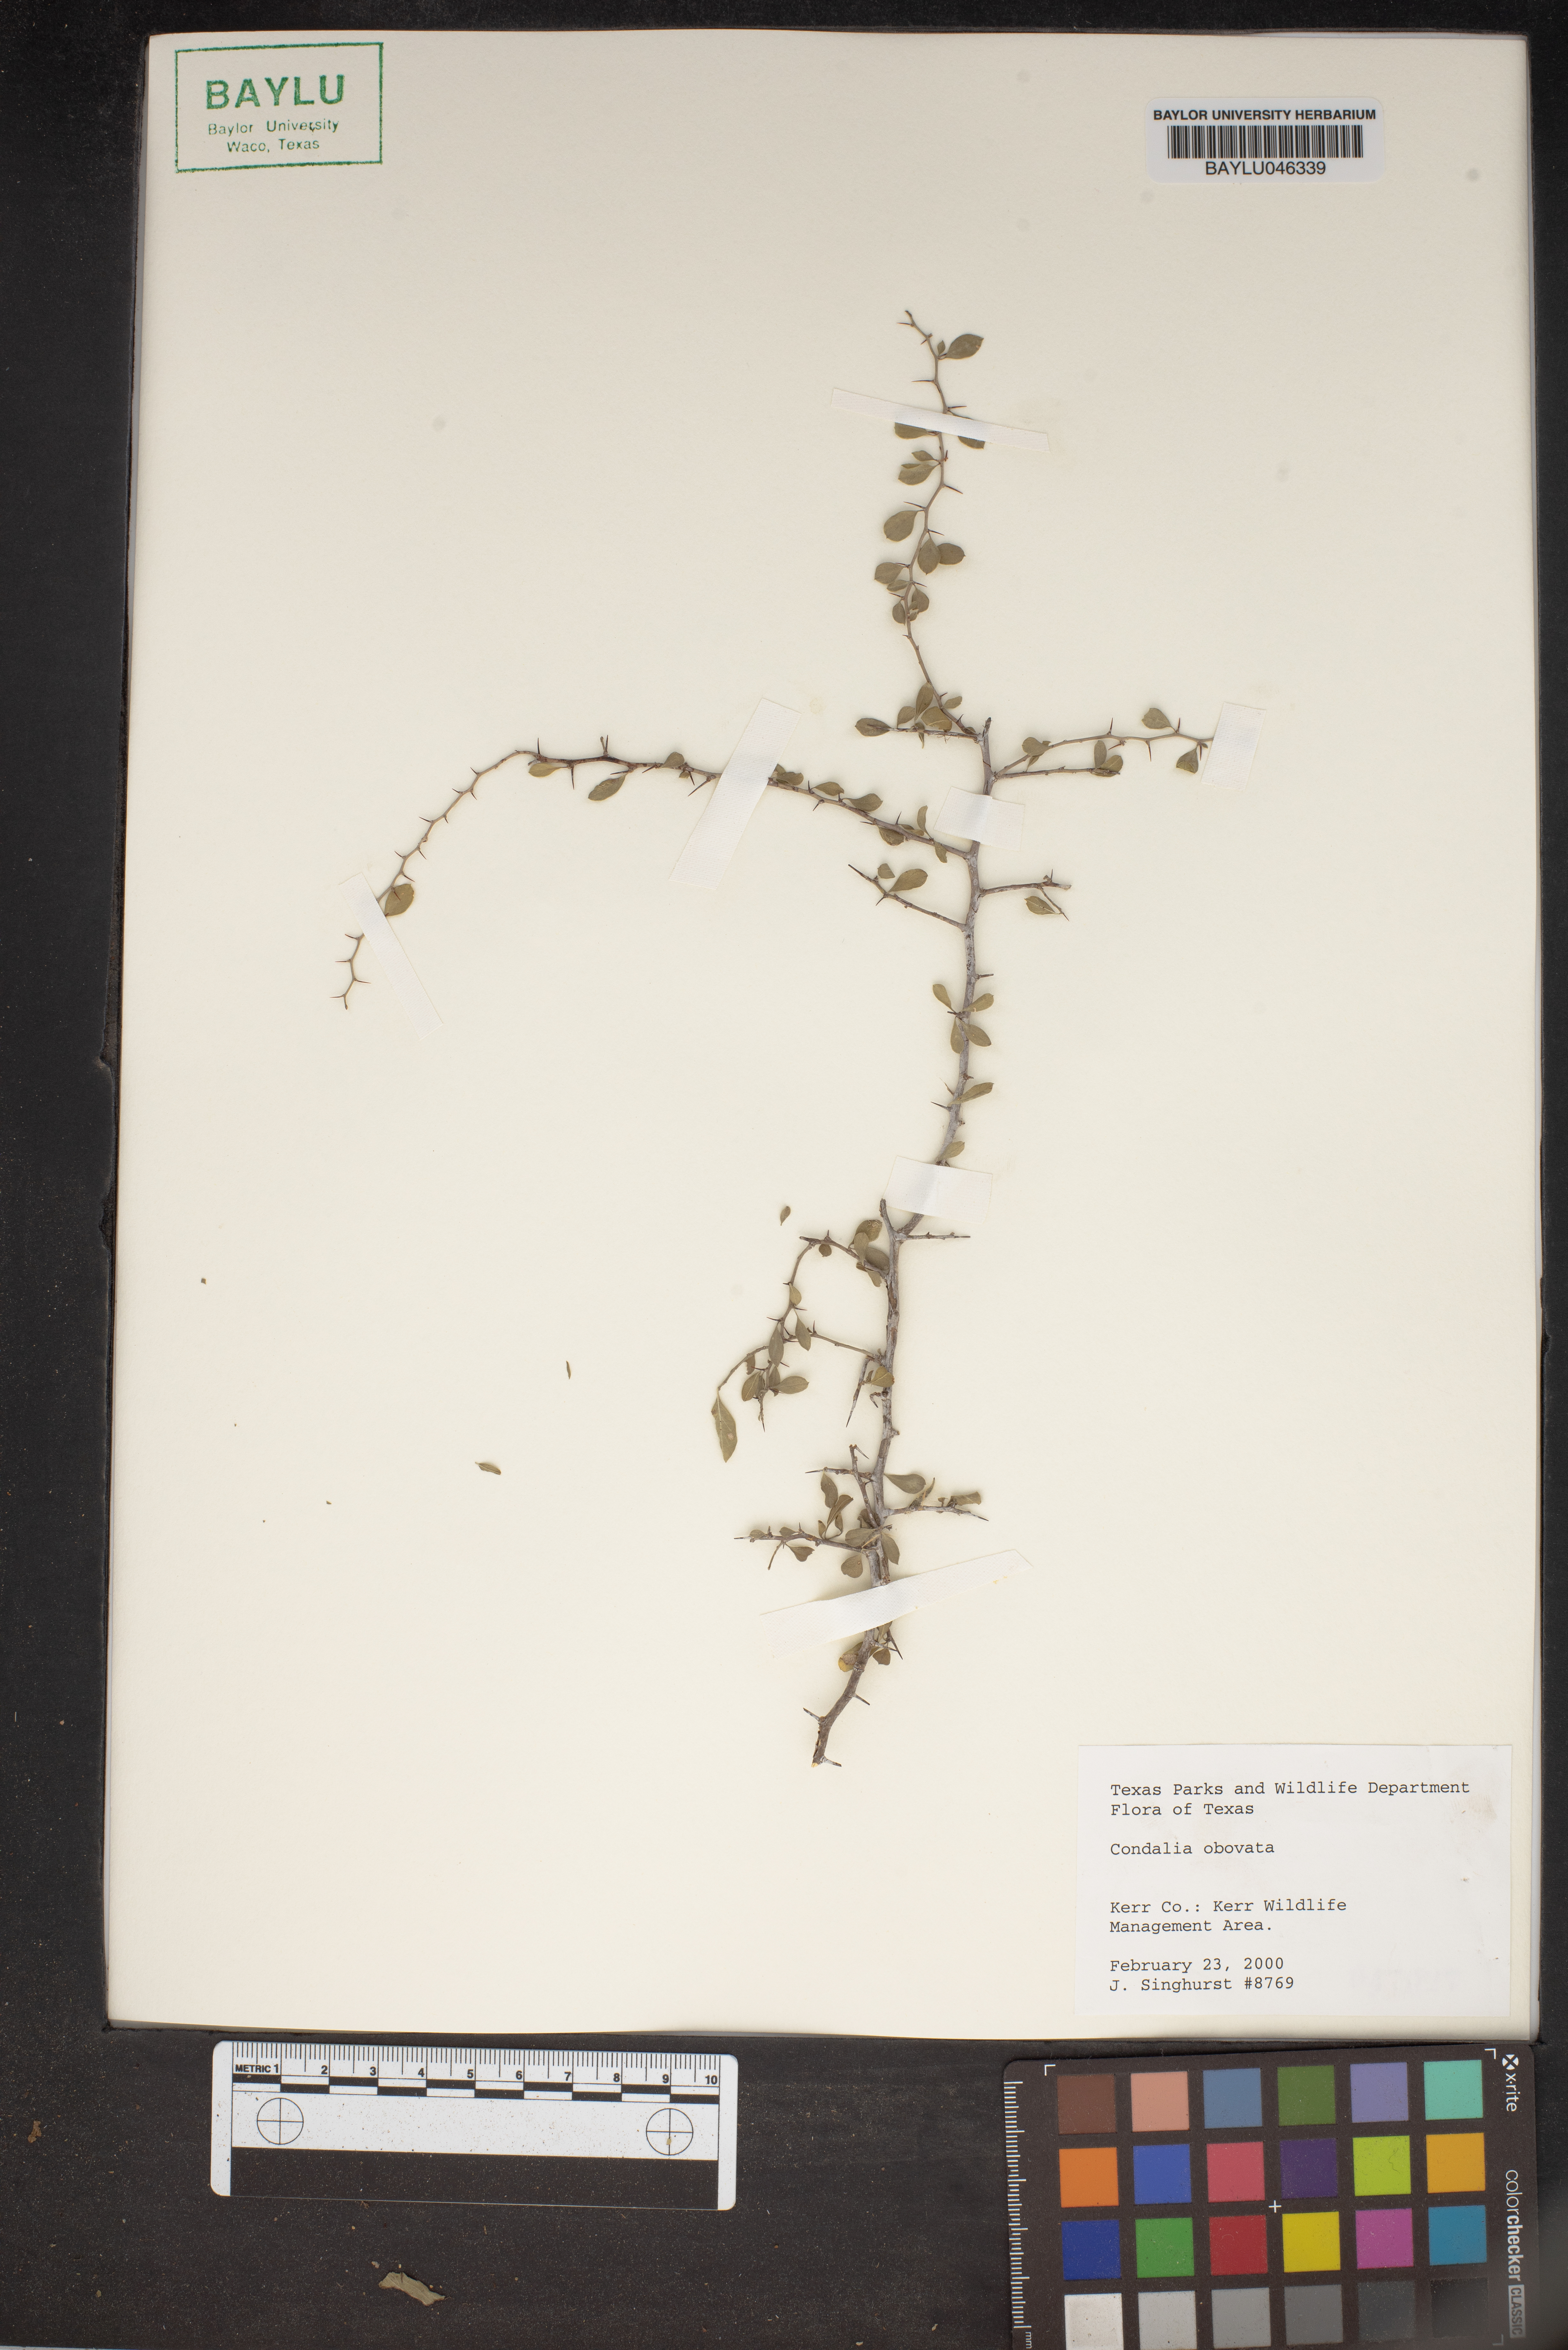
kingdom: Plantae
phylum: Tracheophyta
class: Magnoliopsida
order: Rosales
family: Rhamnaceae
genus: Condalia
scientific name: Condalia hookeri
